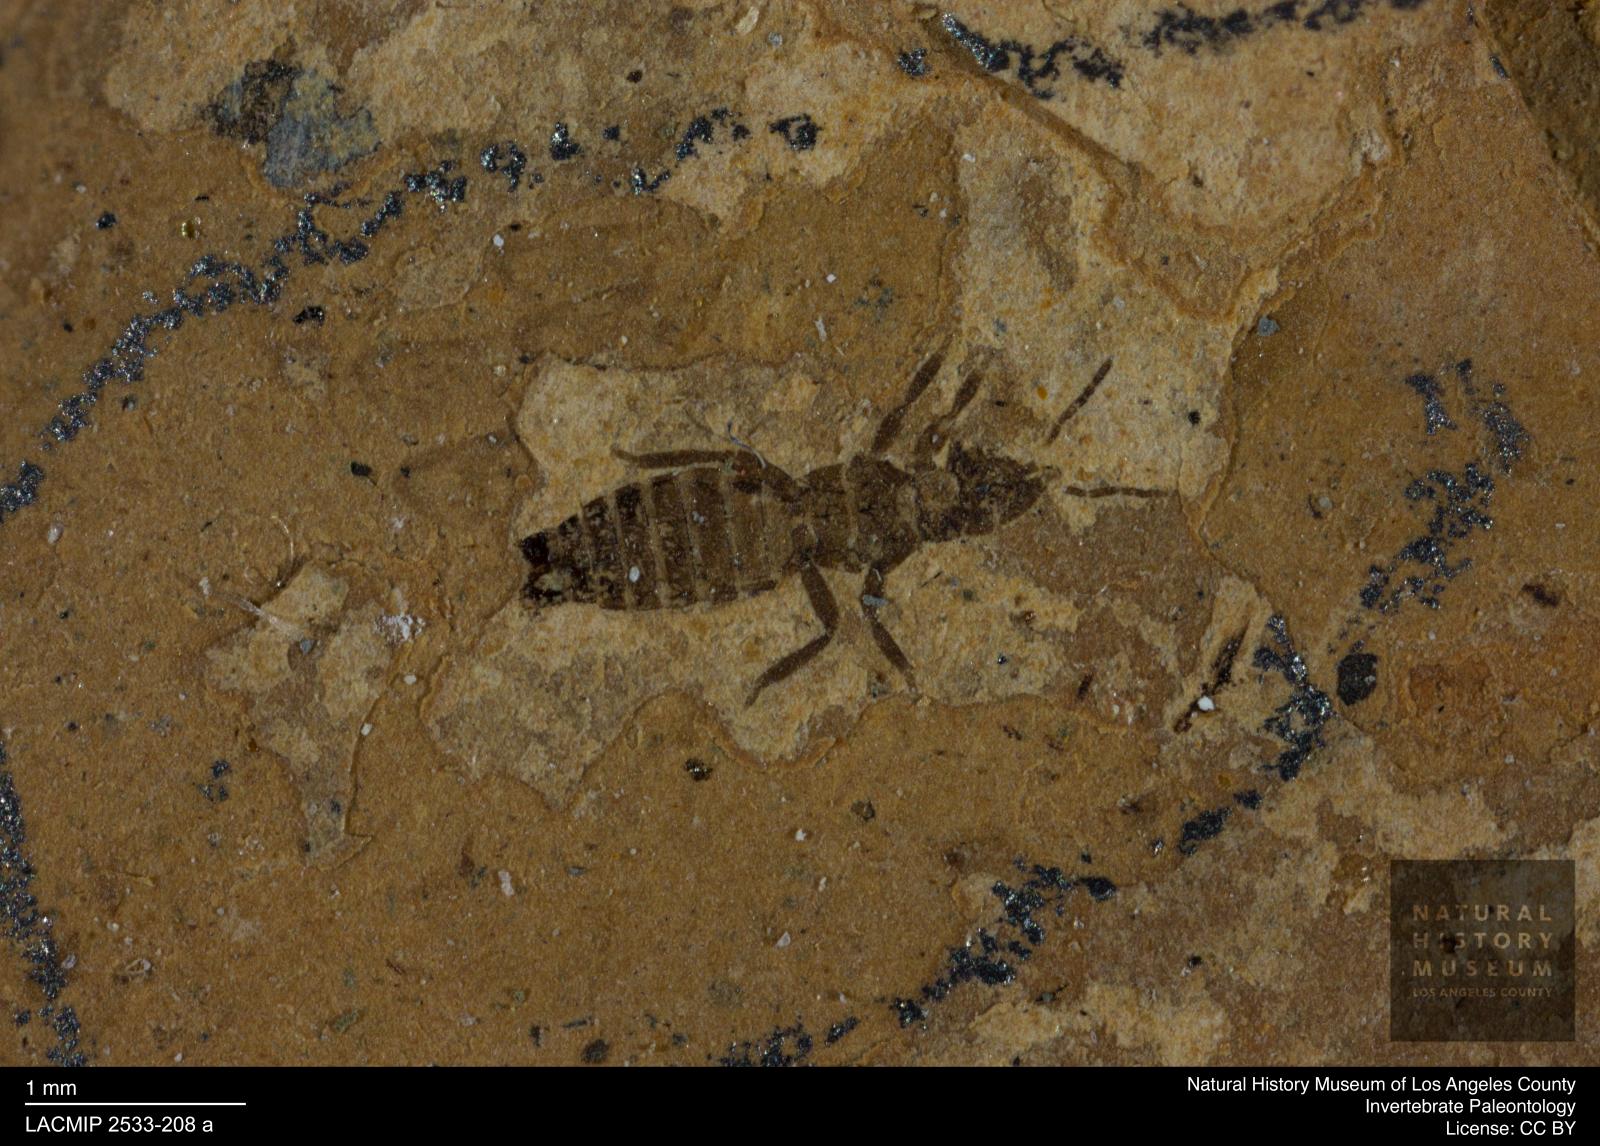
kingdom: Animalia
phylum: Arthropoda
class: Insecta
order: Thysanoptera
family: Thripidae
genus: Thrips
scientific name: Thrips
